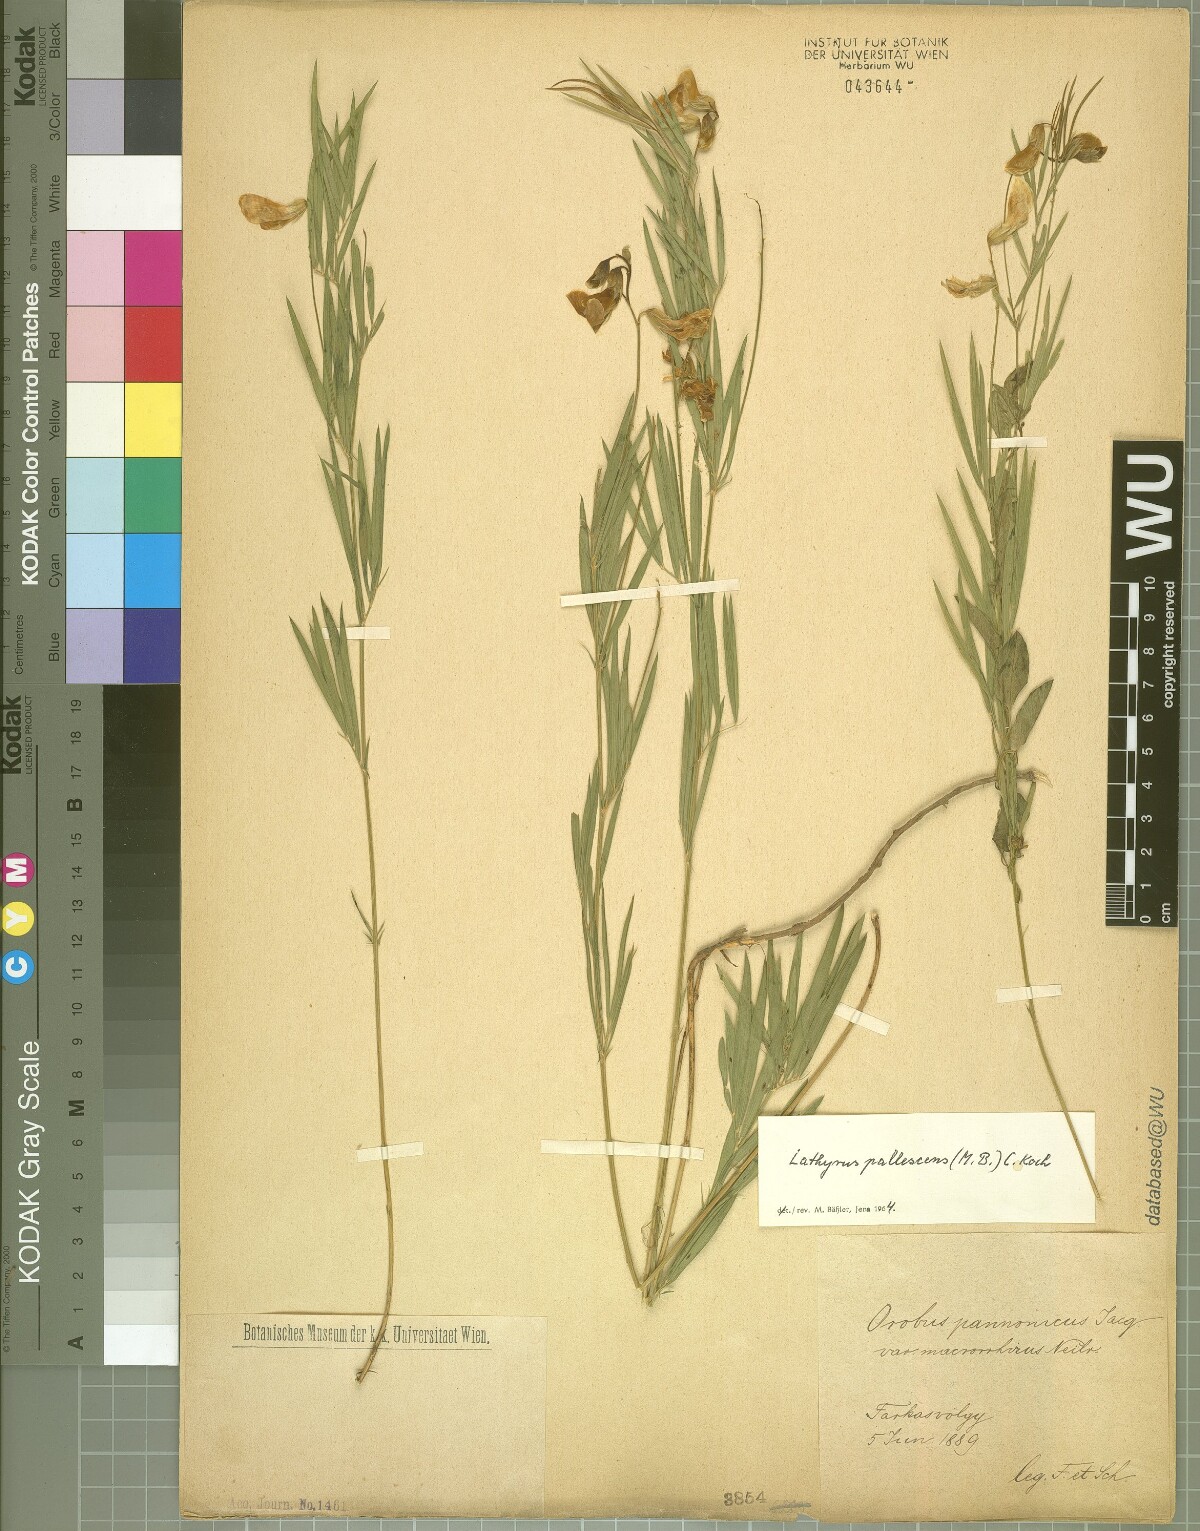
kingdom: Plantae
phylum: Tracheophyta
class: Magnoliopsida
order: Fabales
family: Fabaceae
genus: Lathyrus
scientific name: Lathyrus pallescens
